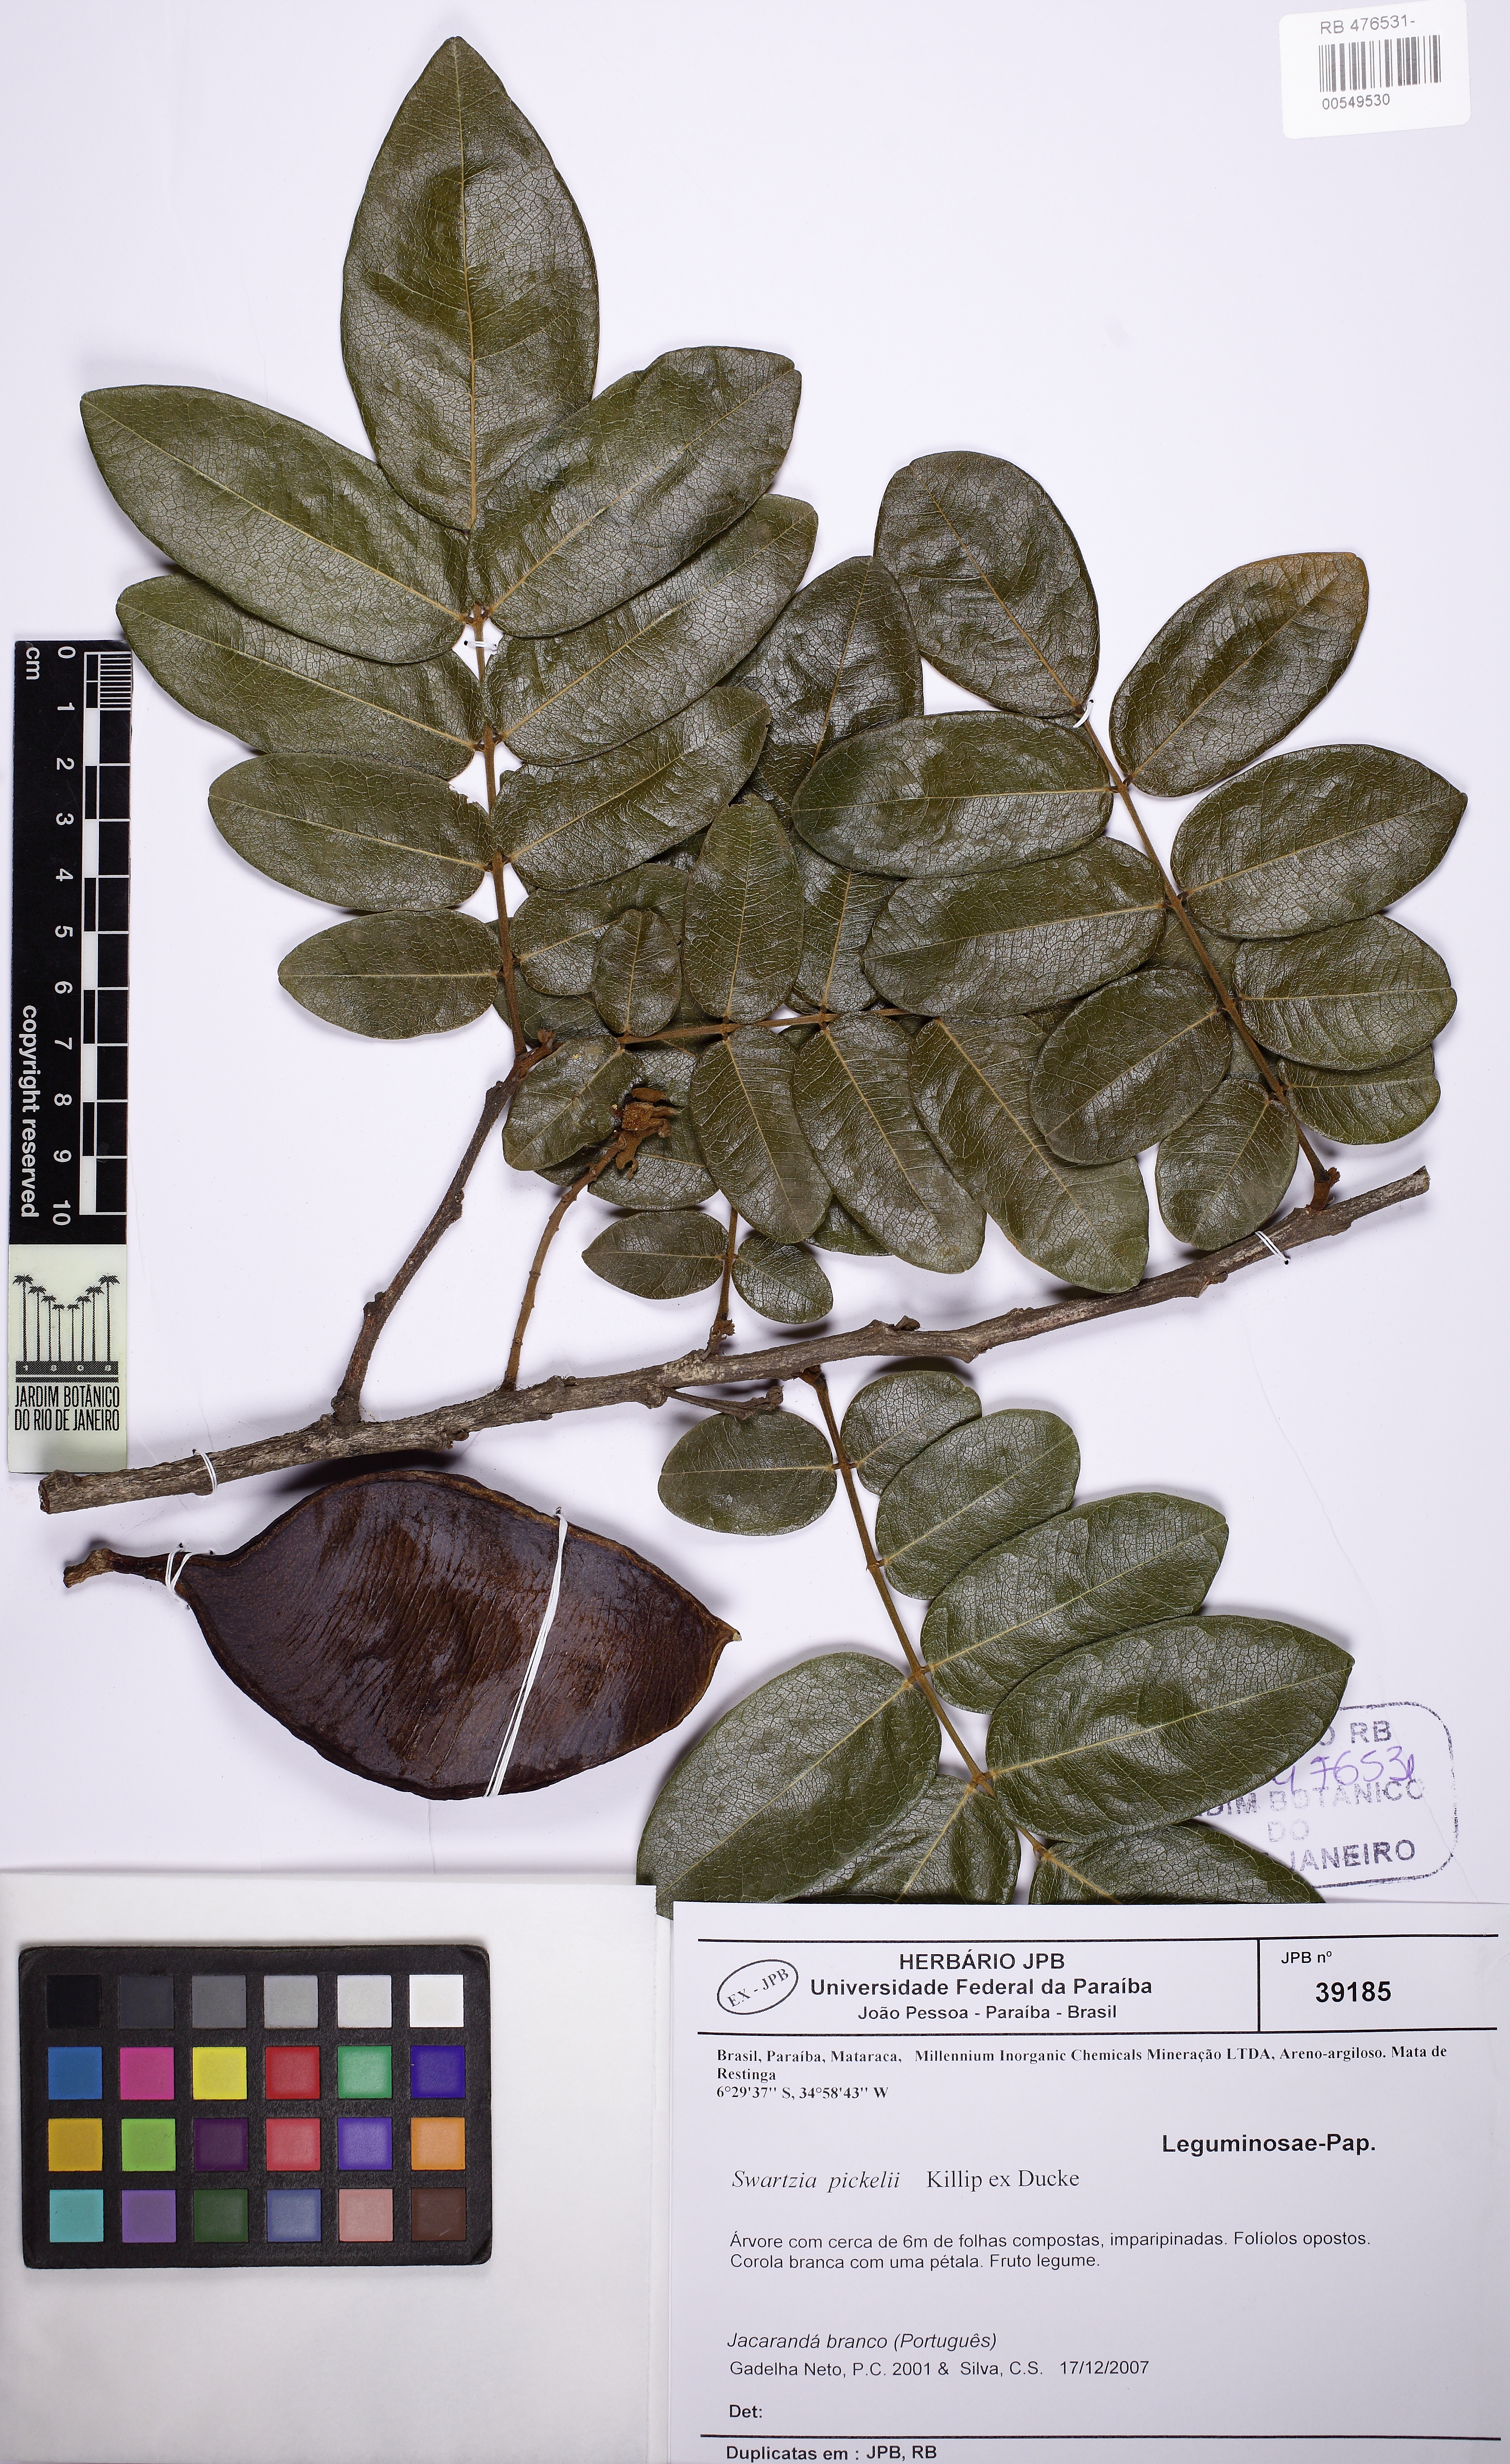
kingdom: Plantae
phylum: Tracheophyta
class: Magnoliopsida
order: Fabales
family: Fabaceae
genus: Swartzia
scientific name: Swartzia pickelii
